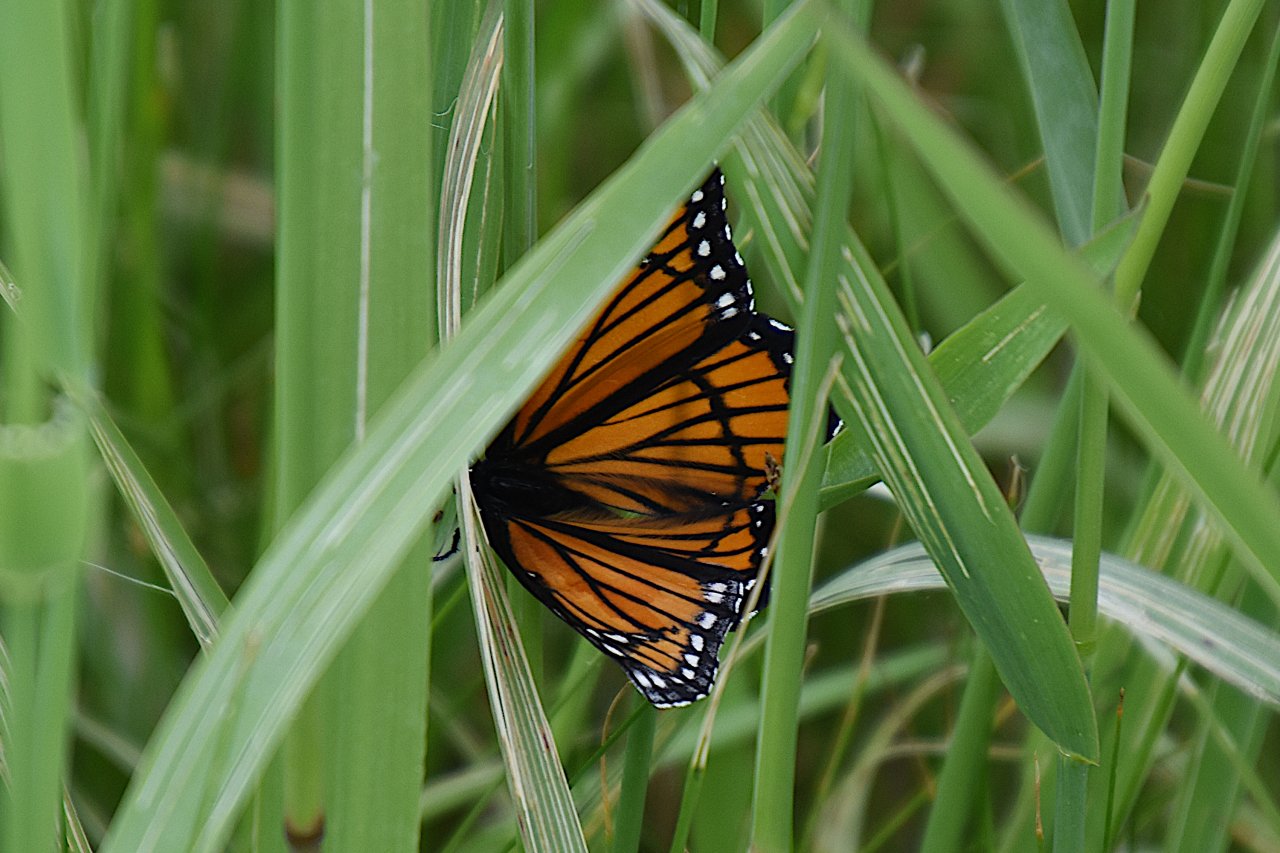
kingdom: Animalia
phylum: Arthropoda
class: Insecta
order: Lepidoptera
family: Nymphalidae
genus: Limenitis
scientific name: Limenitis archippus
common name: Viceroy
